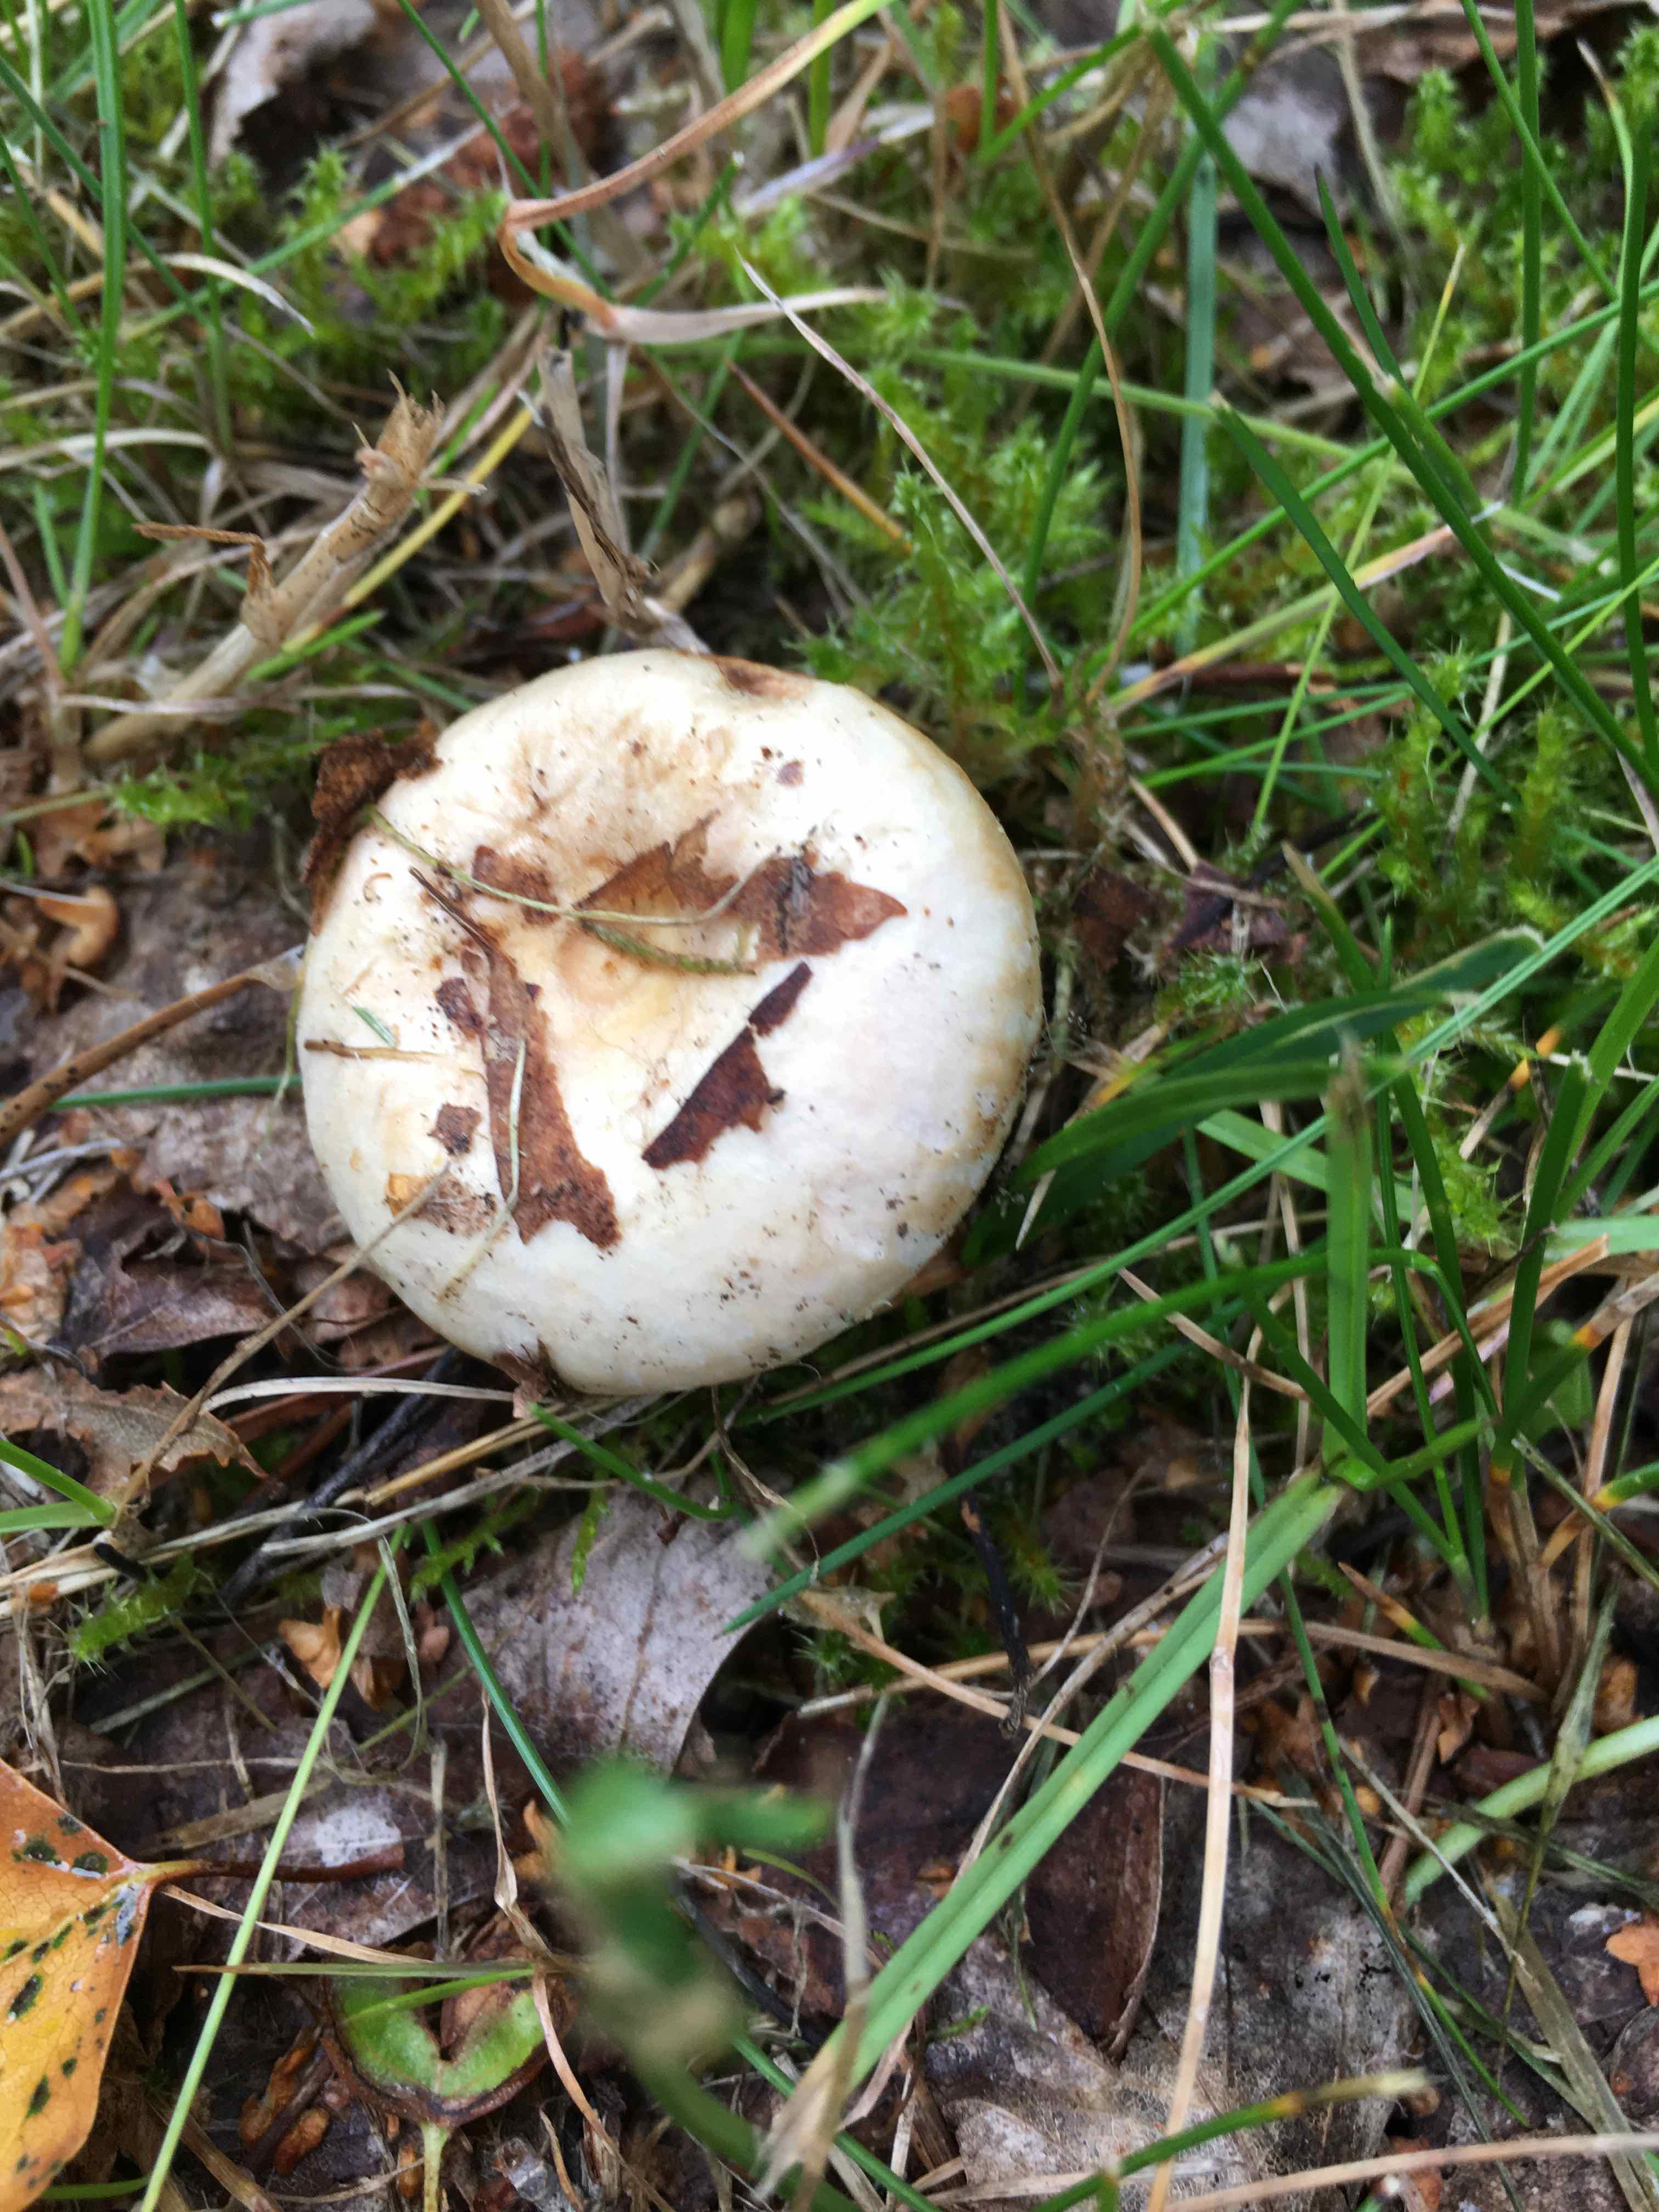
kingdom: Fungi
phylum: Basidiomycota
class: Agaricomycetes
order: Russulales
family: Russulaceae
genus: Lactarius
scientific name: Lactarius pubescens
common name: dunet mælkehat
